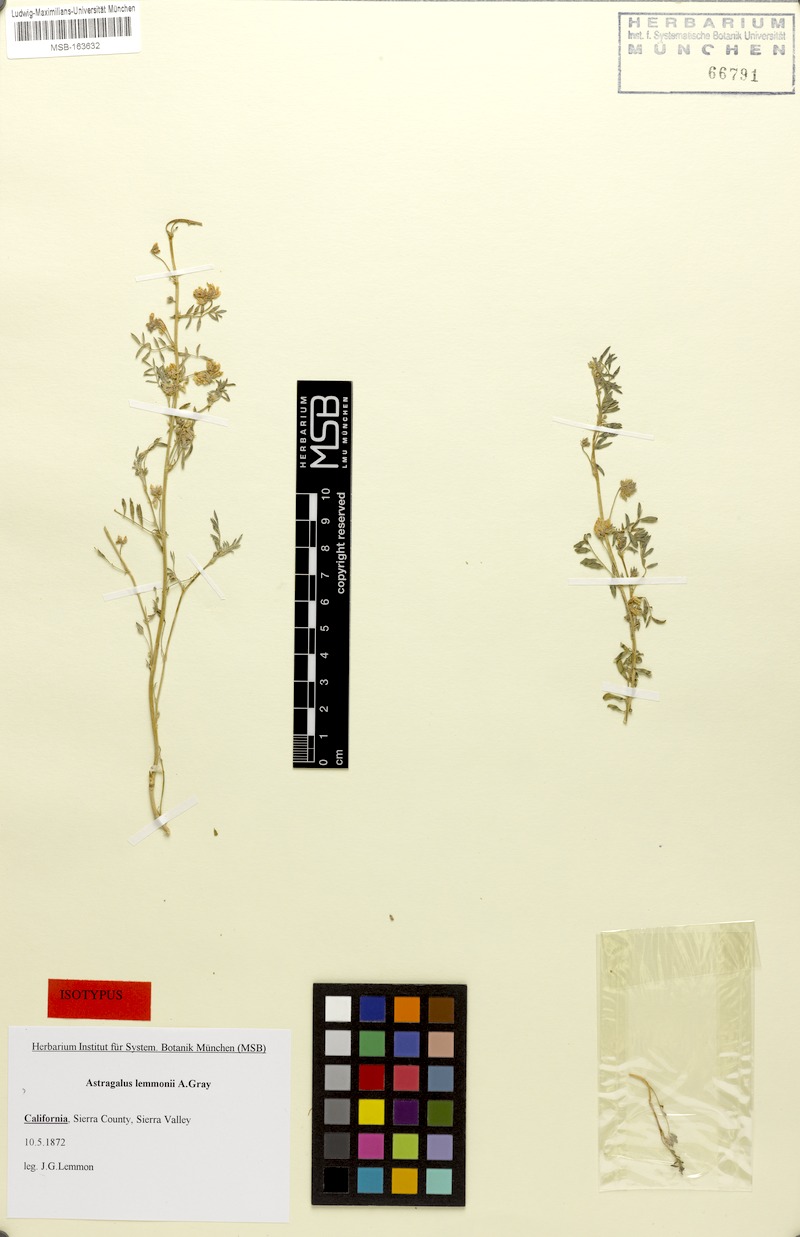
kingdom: Plantae
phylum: Tracheophyta
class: Magnoliopsida
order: Fabales
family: Fabaceae
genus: Astragalus
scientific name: Astragalus lemmonii
